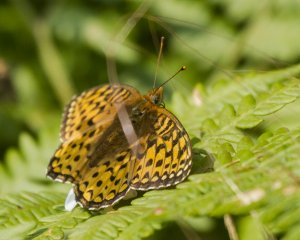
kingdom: Animalia
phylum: Arthropoda
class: Insecta
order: Lepidoptera
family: Nymphalidae
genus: Speyeria
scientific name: Speyeria atlantis
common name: Atlantis Fritillary
